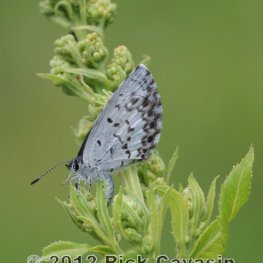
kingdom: Animalia
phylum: Arthropoda
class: Insecta
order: Lepidoptera
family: Lycaenidae
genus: Cyaniris
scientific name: Cyaniris neglecta
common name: Summer Azure
